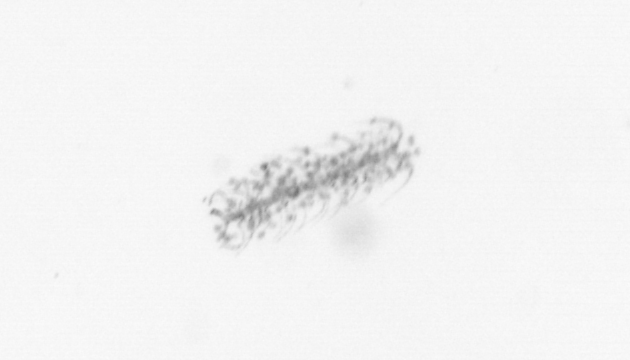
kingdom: Chromista
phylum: Ochrophyta
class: Bacillariophyceae
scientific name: Bacillariophyceae
